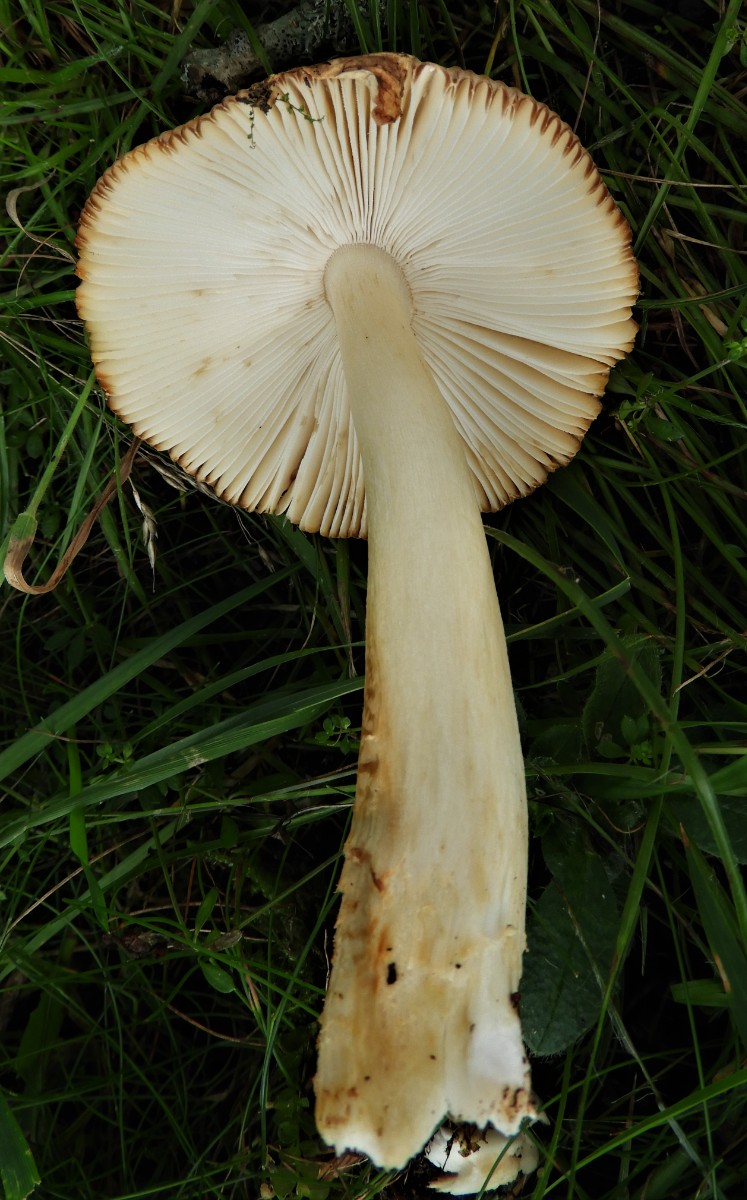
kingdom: Fungi
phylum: Basidiomycota
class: Agaricomycetes
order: Agaricales
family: Amanitaceae
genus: Amanita
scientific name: Amanita fulva
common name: brun kam-fluesvamp
